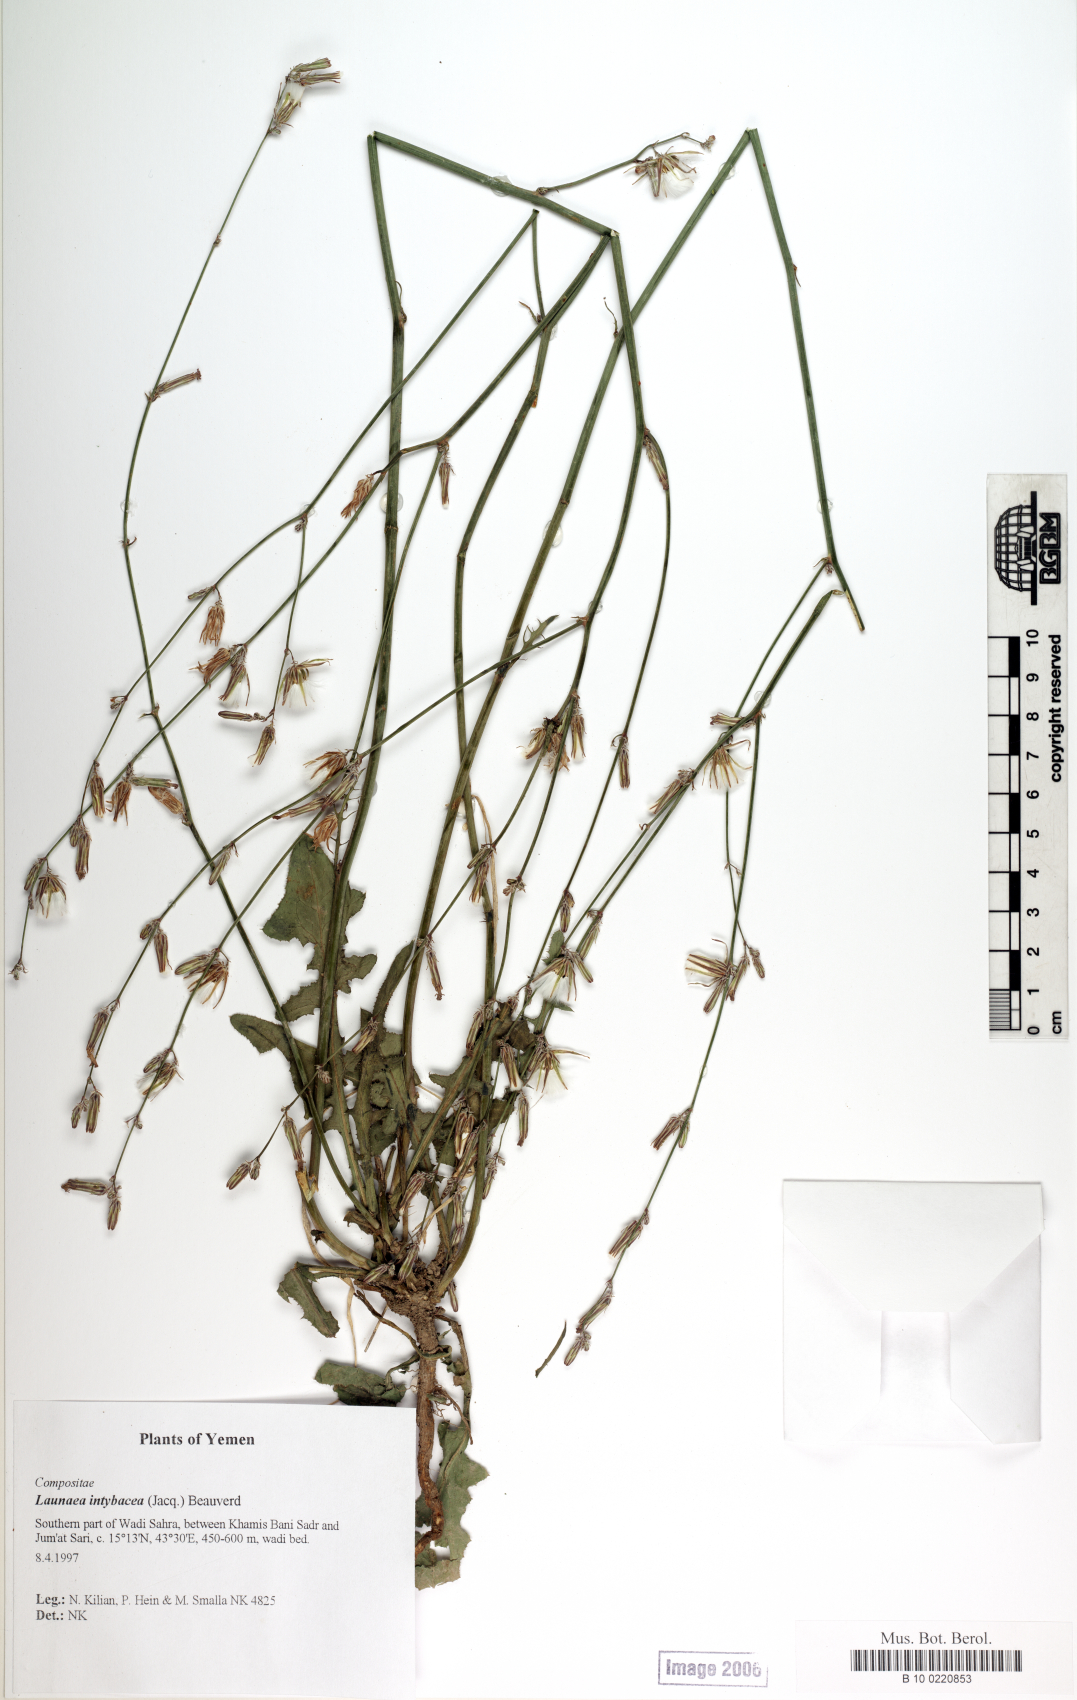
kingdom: Plantae
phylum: Tracheophyta
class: Magnoliopsida
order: Asterales
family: Asteraceae
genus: Launaea
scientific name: Launaea intybacea
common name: Achicoria azul
